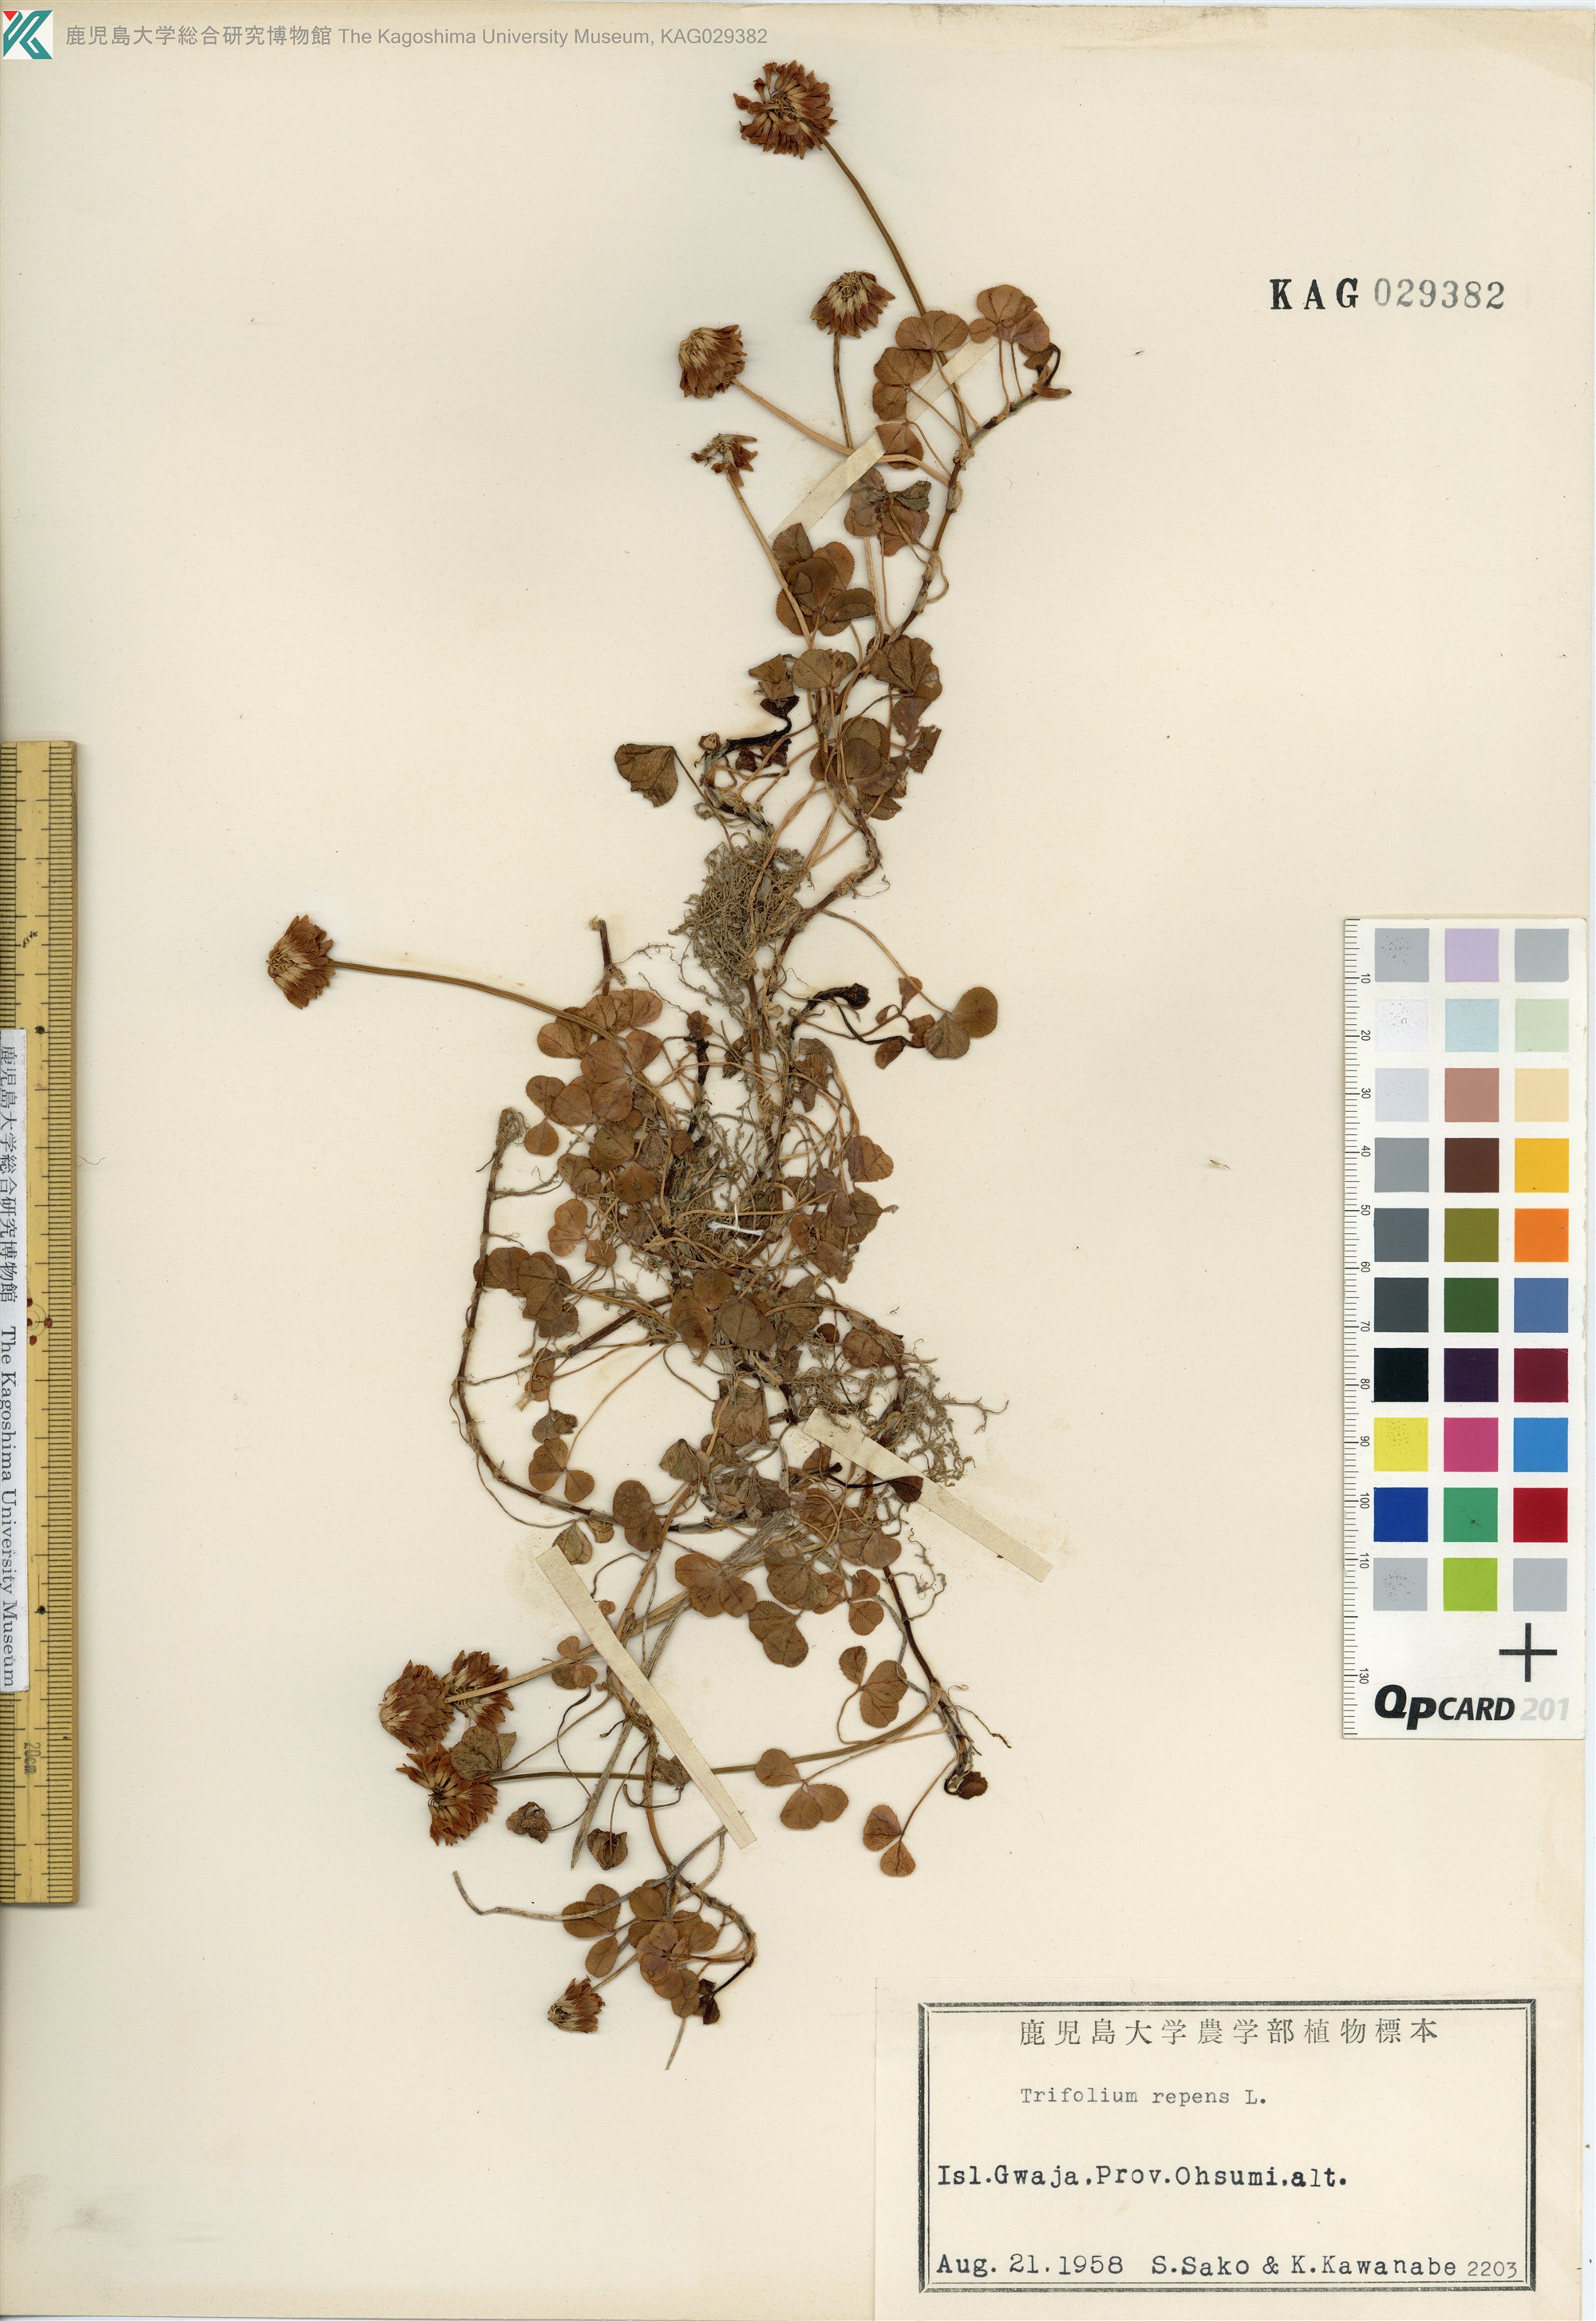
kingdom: Plantae
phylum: Tracheophyta
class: Magnoliopsida
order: Fabales
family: Fabaceae
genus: Trifolium
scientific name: Trifolium repens
